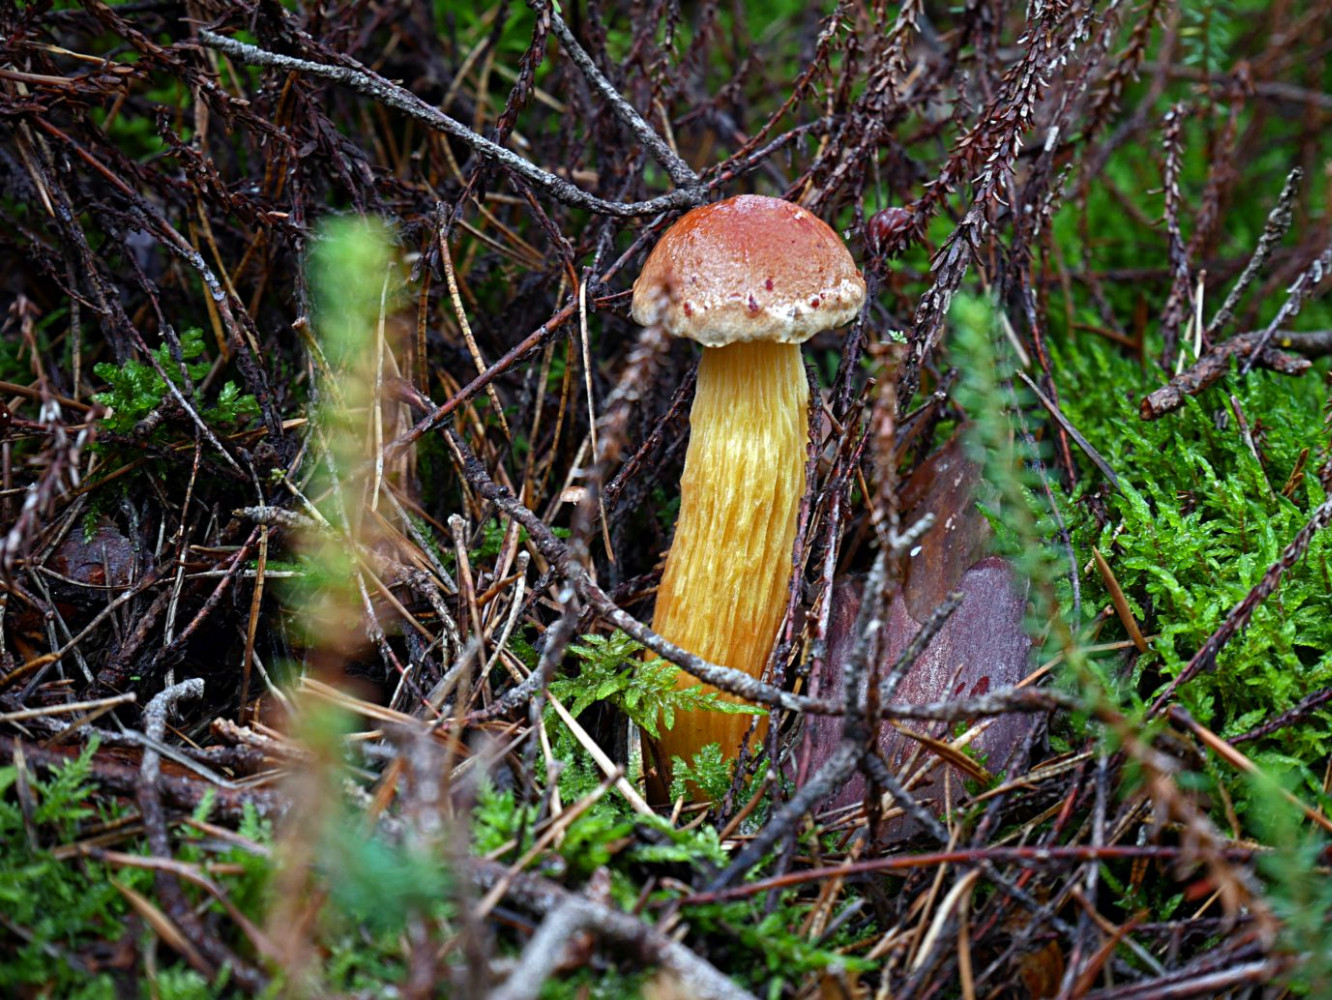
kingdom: Fungi
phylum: Basidiomycota
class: Agaricomycetes
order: Boletales
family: Boletaceae
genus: Aureoboletus
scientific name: Aureoboletus projectellus
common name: ribbestokket rørhat
